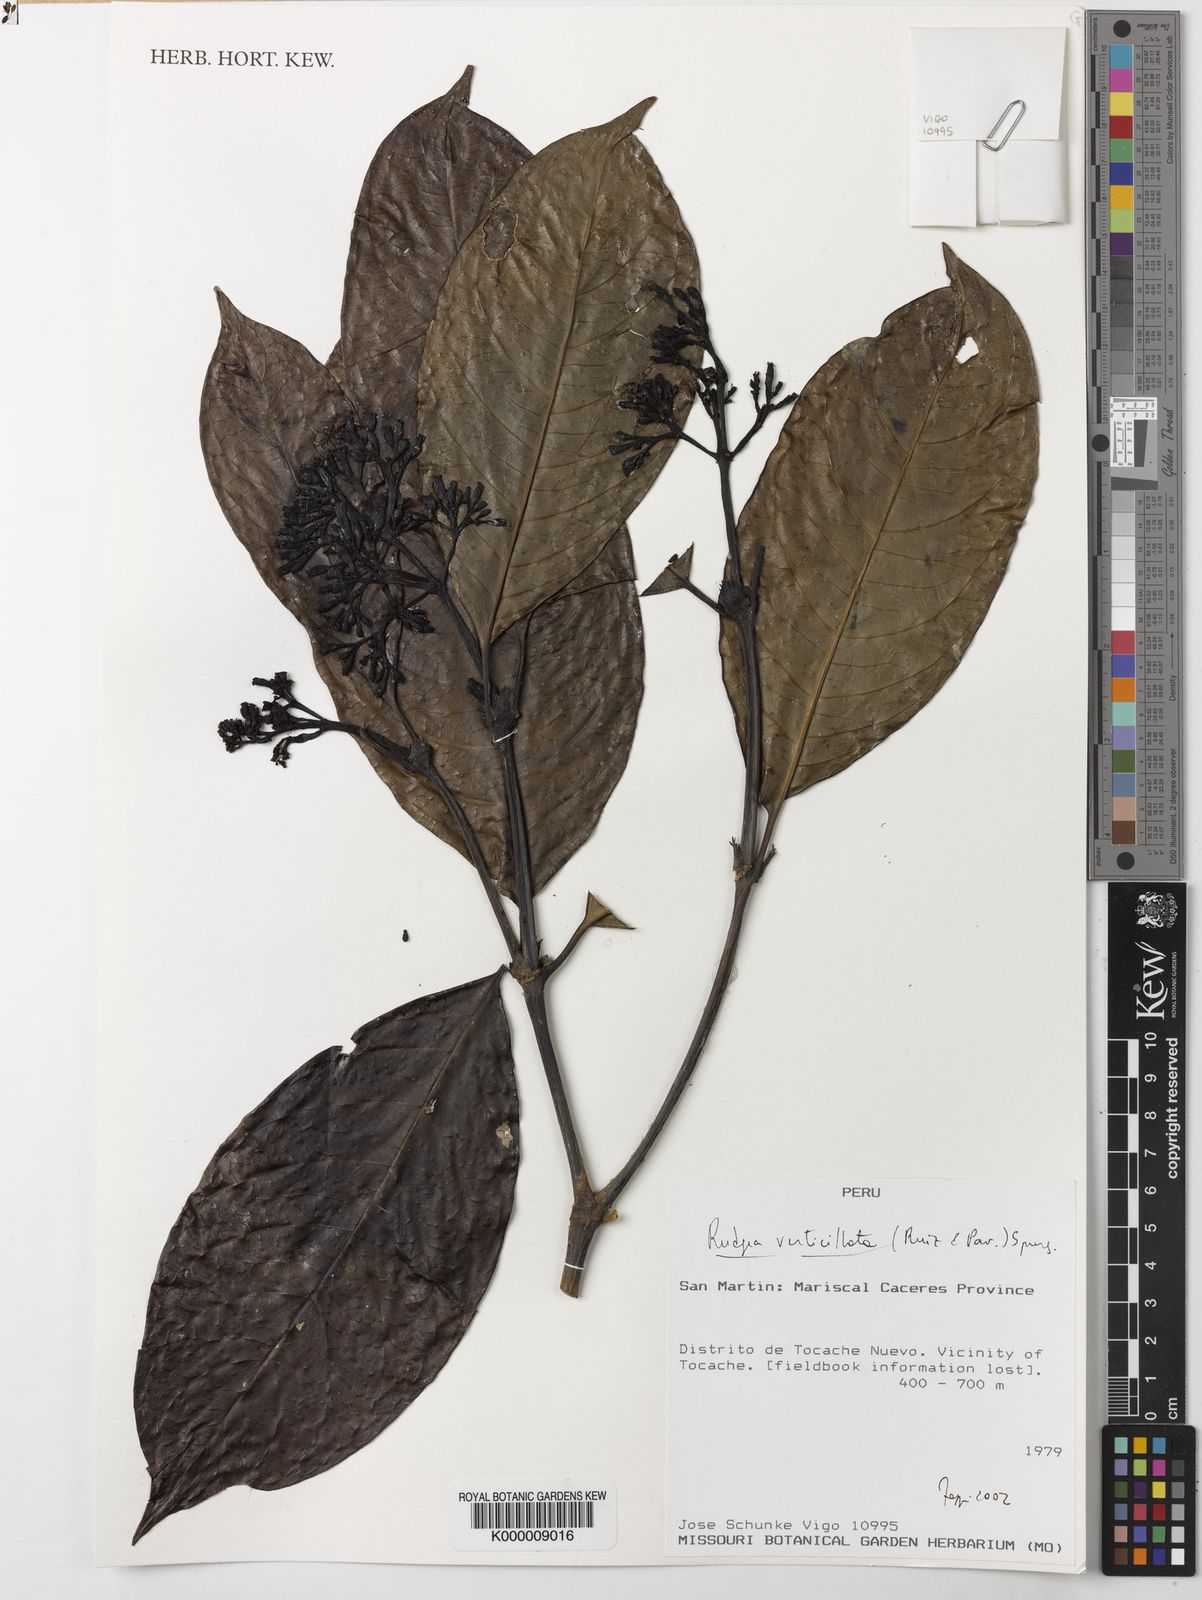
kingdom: Plantae
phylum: Tracheophyta
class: Magnoliopsida
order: Gentianales
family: Rubiaceae
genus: Rudgea
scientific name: Rudgea crassipetiolata
